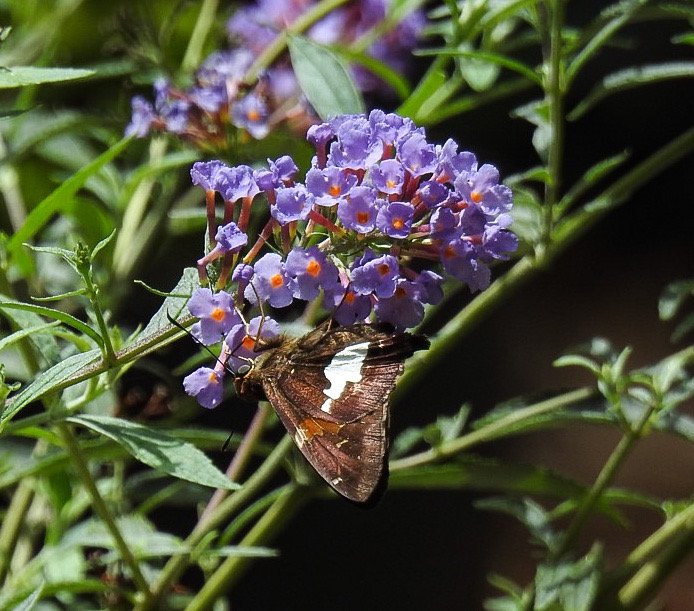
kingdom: Animalia
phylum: Arthropoda
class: Insecta
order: Lepidoptera
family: Hesperiidae
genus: Epargyreus
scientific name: Epargyreus clarus
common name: Silver-spotted Skipper
